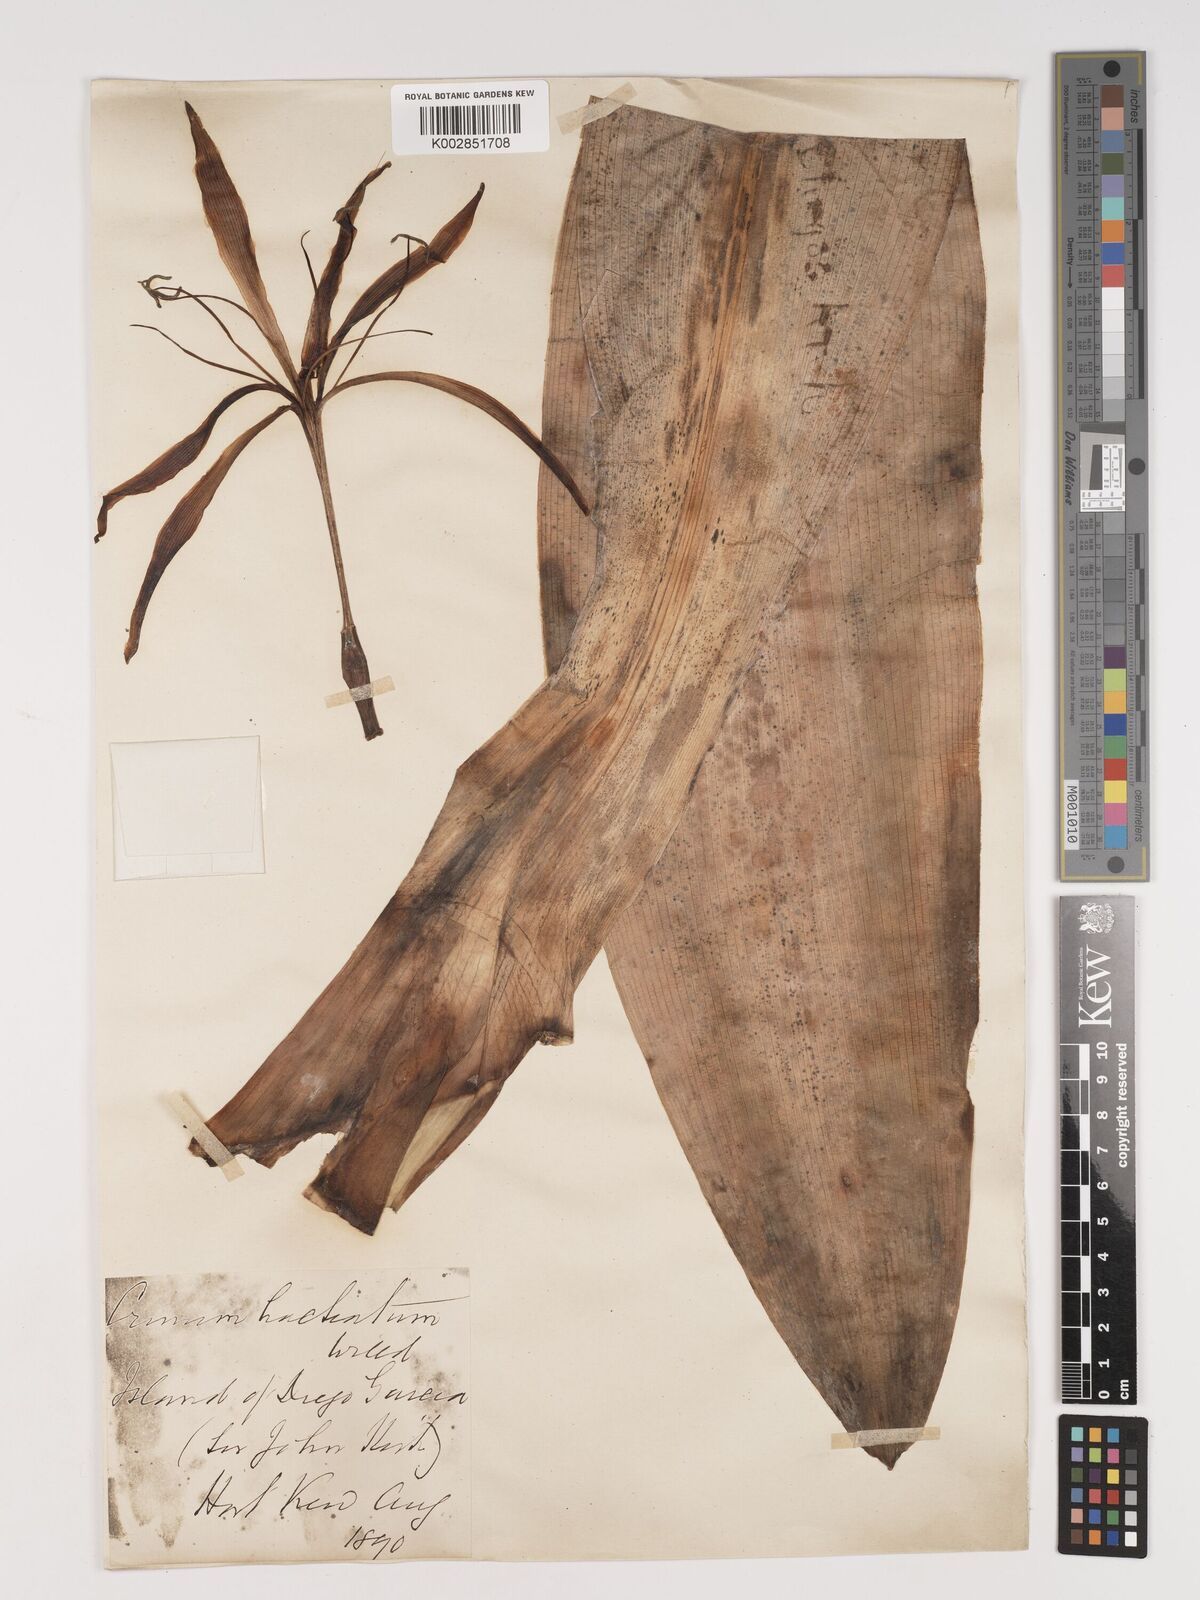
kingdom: Plantae
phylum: Tracheophyta
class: Liliopsida
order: Asparagales
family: Amaryllidaceae
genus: Crinum
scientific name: Crinum
